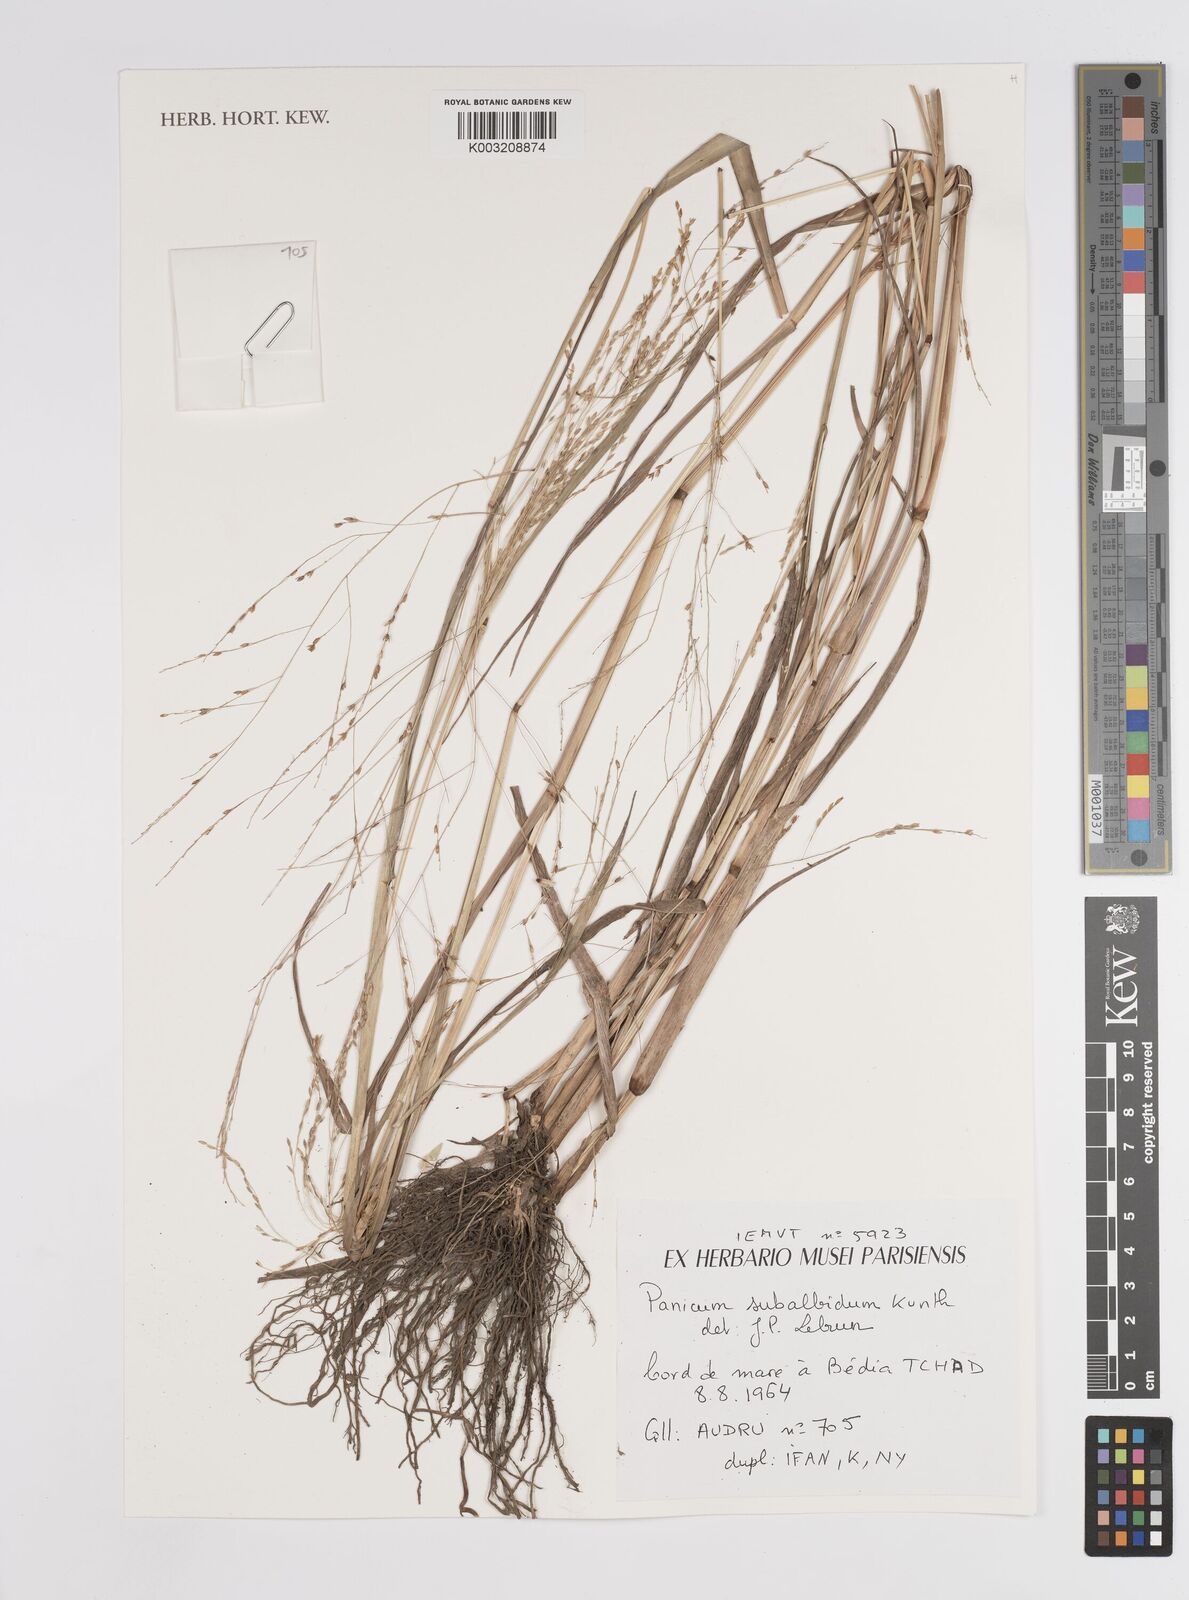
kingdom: Plantae
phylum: Tracheophyta
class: Liliopsida
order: Poales
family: Poaceae
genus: Panicum
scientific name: Panicum subalbidum
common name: Elbow buffalo grass
